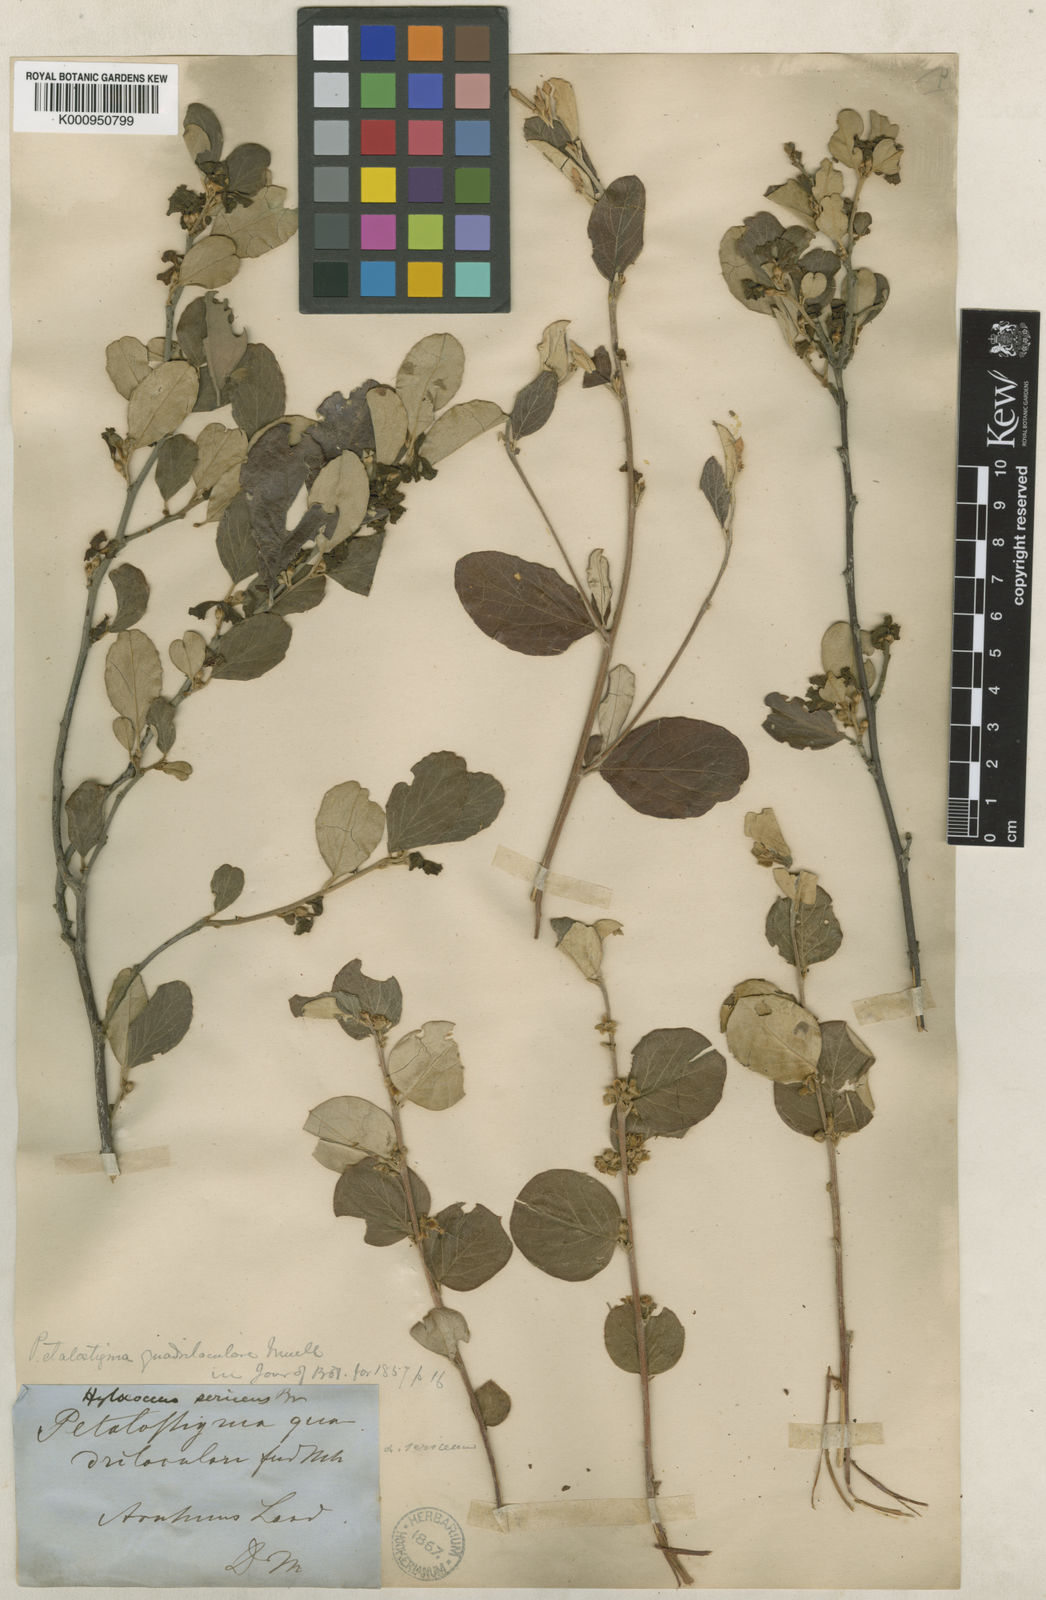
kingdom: Plantae
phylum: Tracheophyta
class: Magnoliopsida
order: Malpighiales
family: Picrodendraceae
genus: Petalostigma
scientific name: Petalostigma quadriloculare
